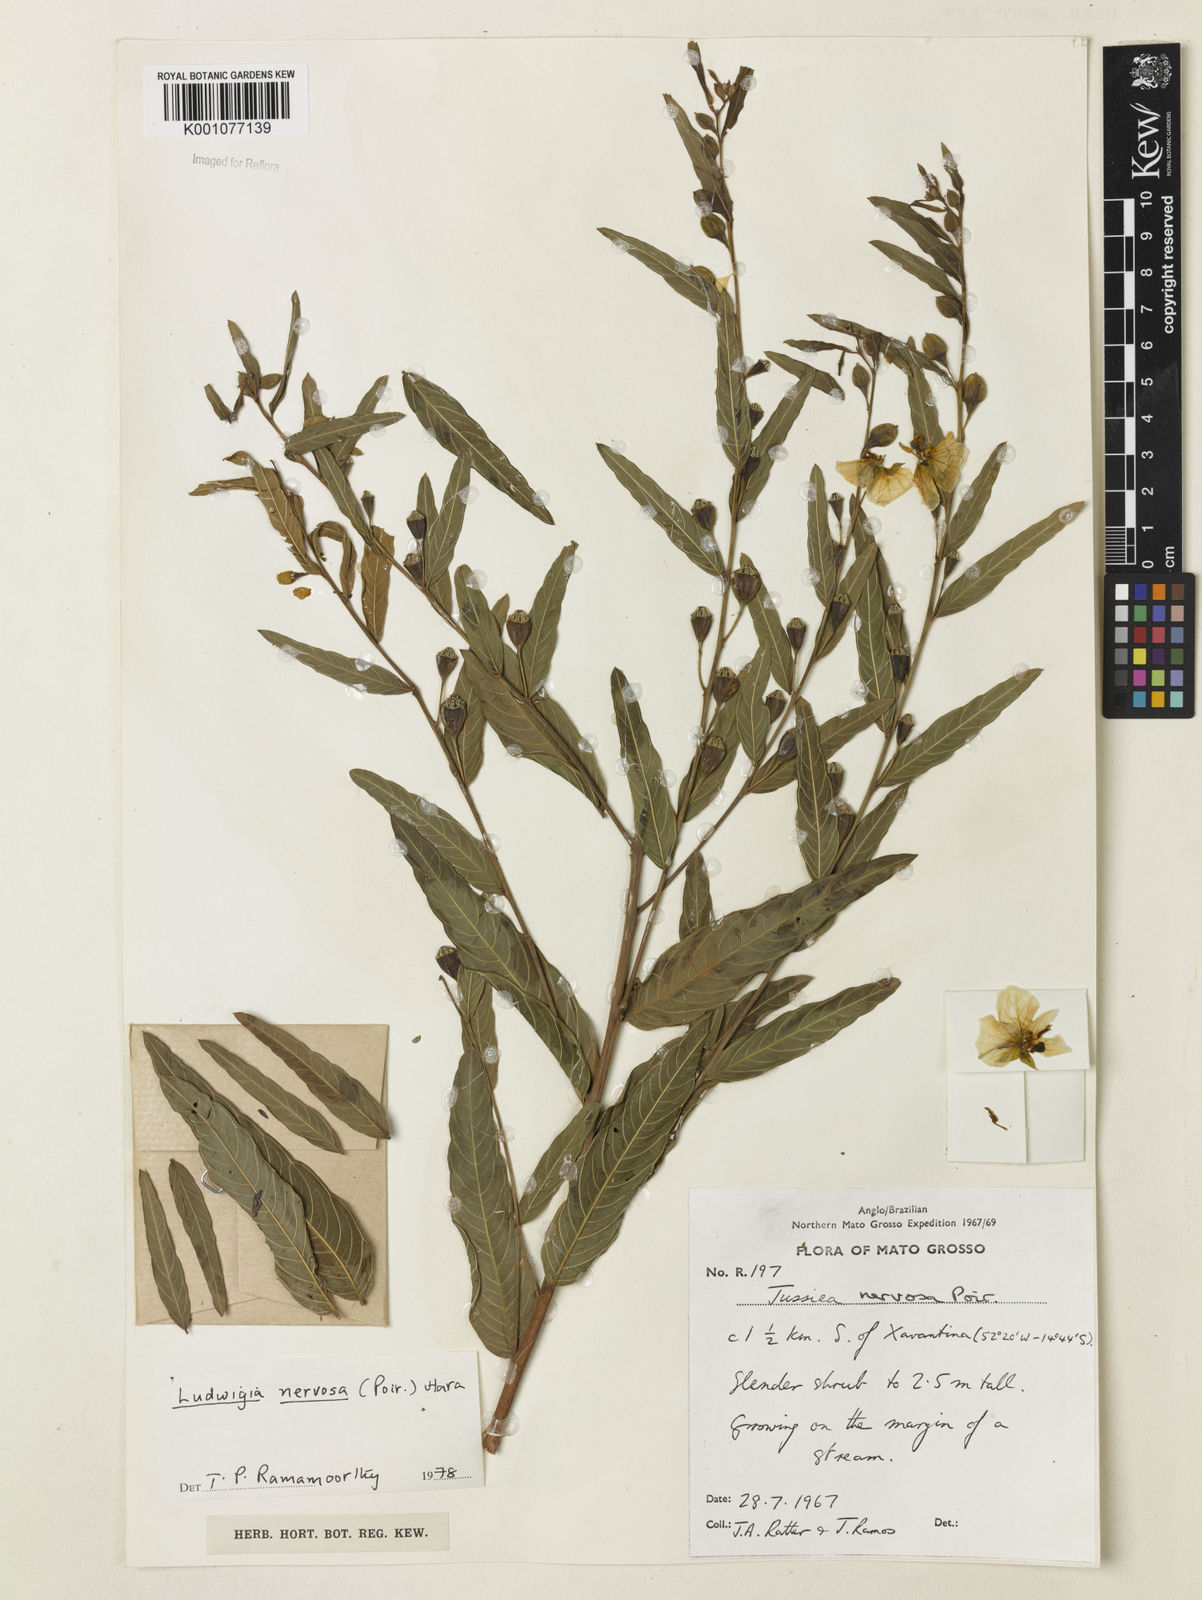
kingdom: Plantae
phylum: Tracheophyta
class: Magnoliopsida
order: Myrtales
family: Onagraceae
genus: Ludwigia
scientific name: Ludwigia nervosa
